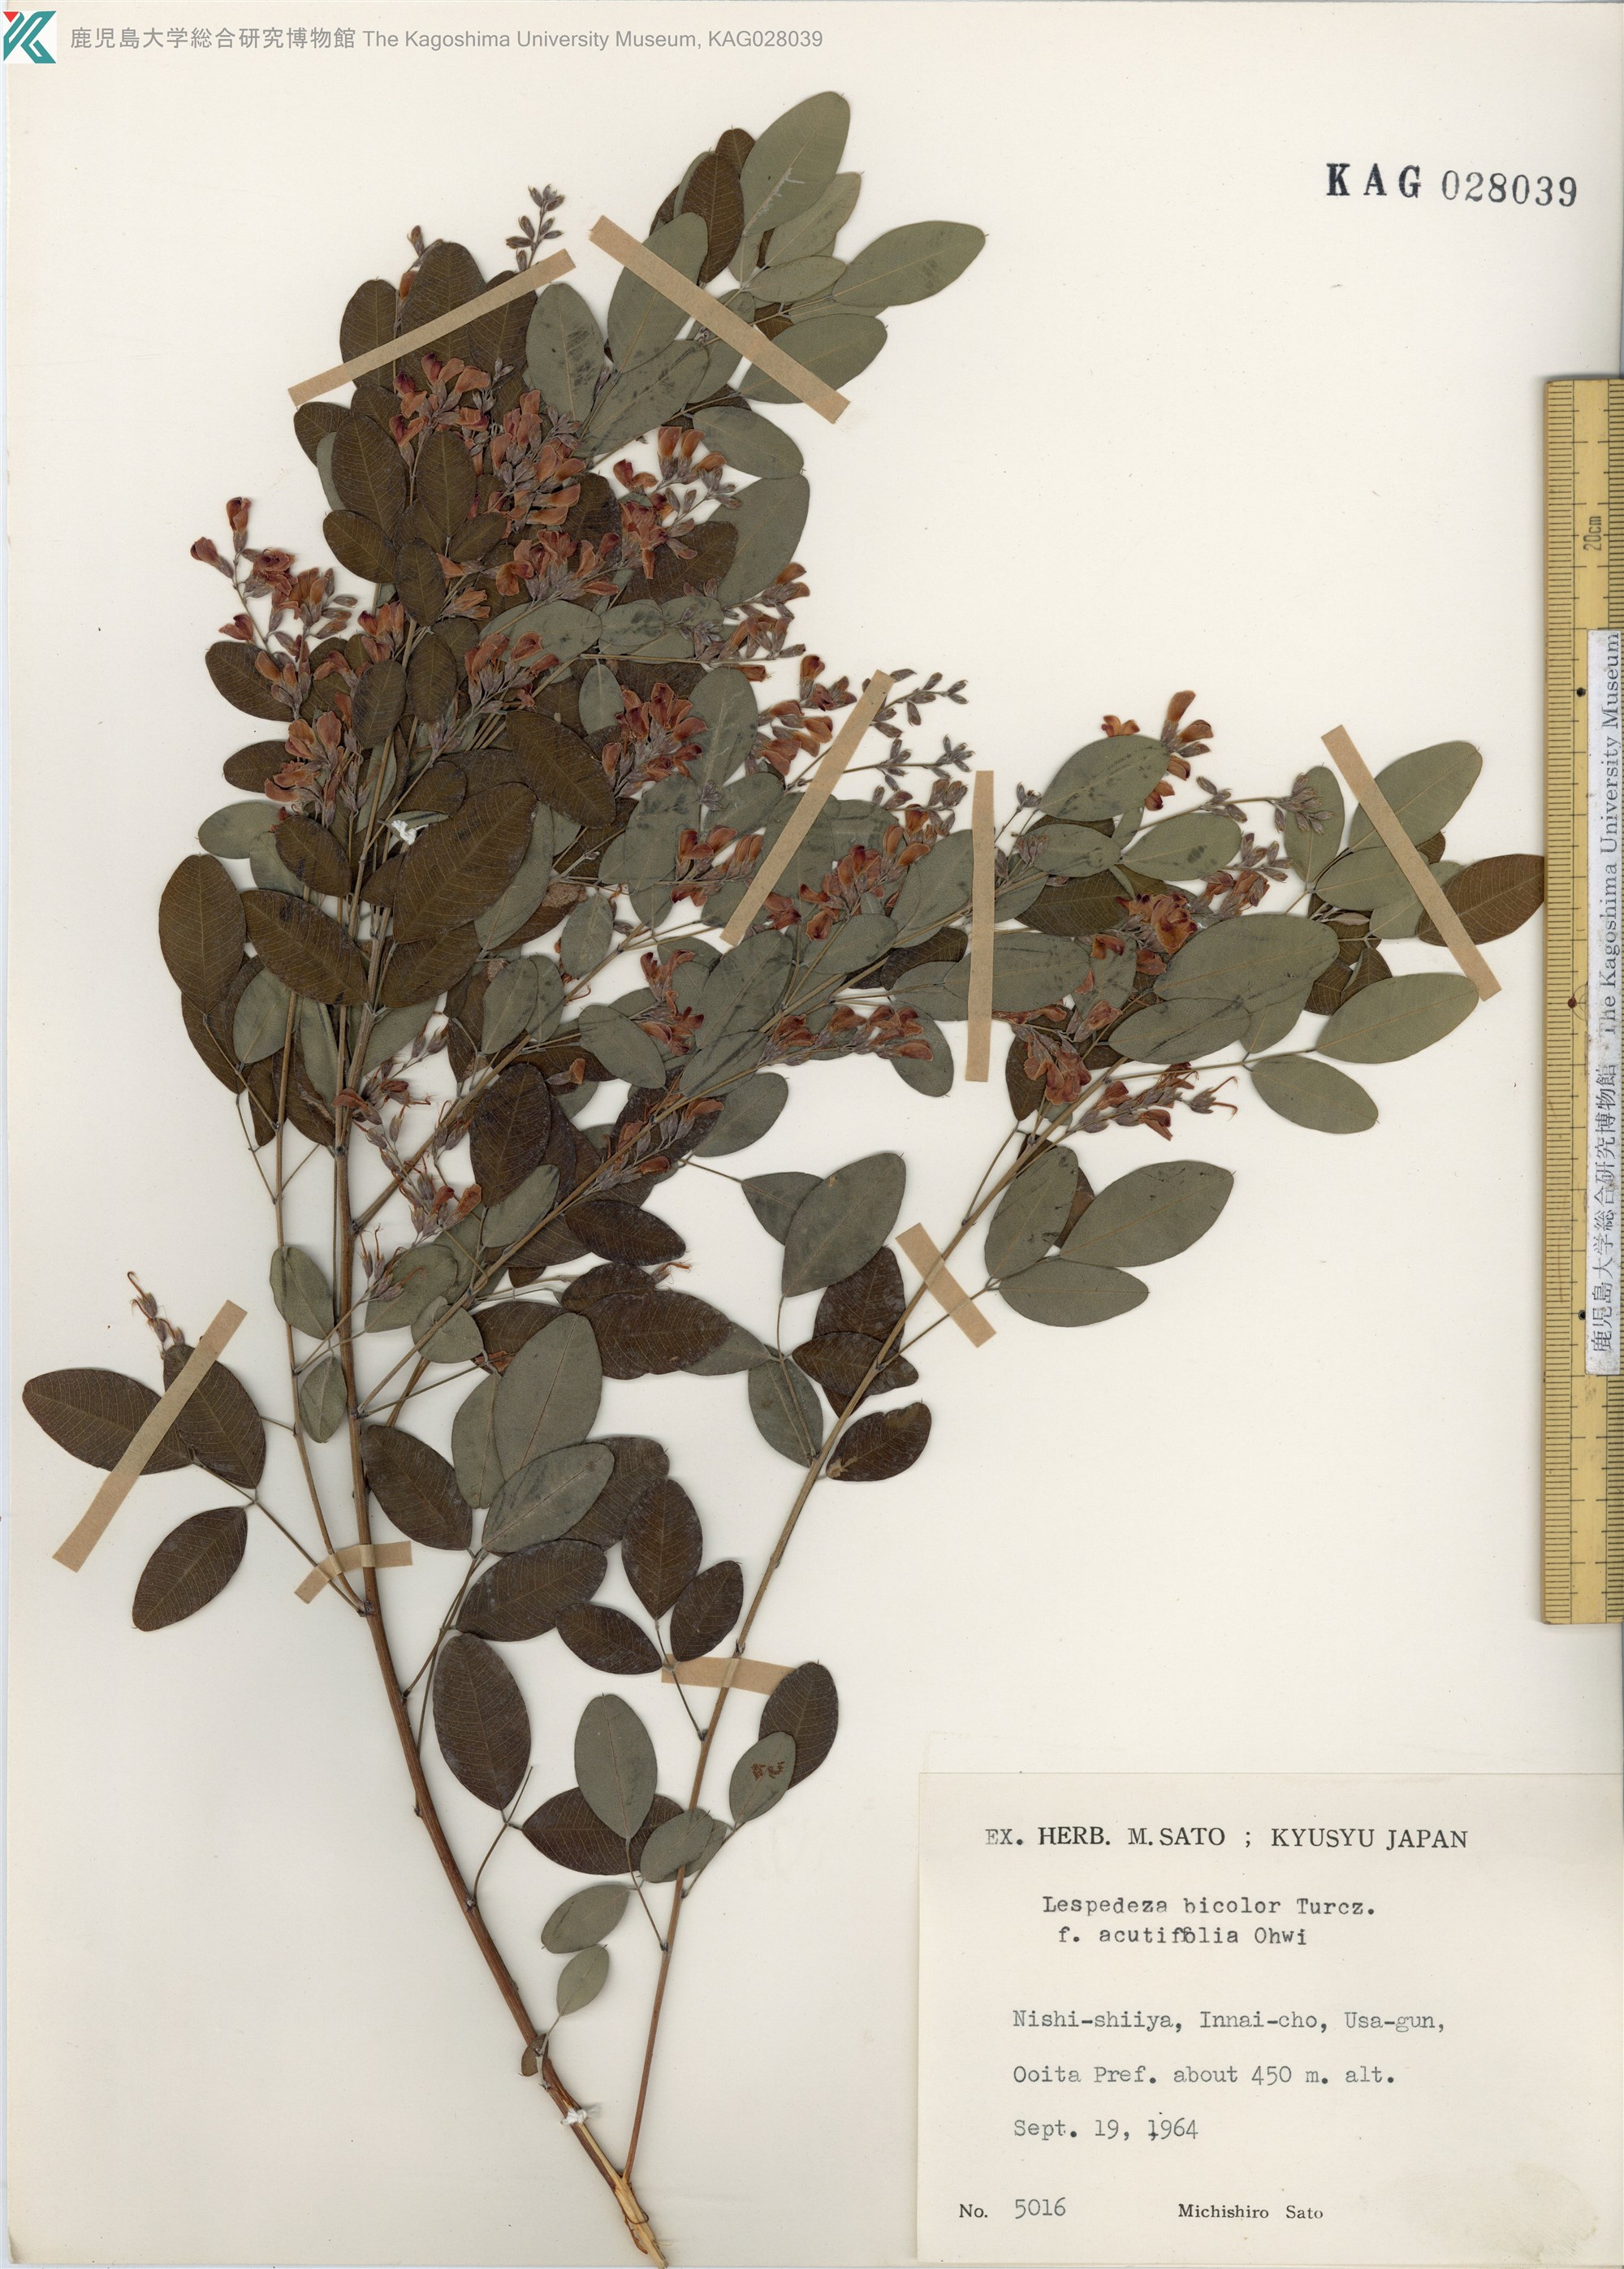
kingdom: Plantae
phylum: Tracheophyta
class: Magnoliopsida
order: Fabales
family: Fabaceae
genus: Lespedeza
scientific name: Lespedeza bicolor
